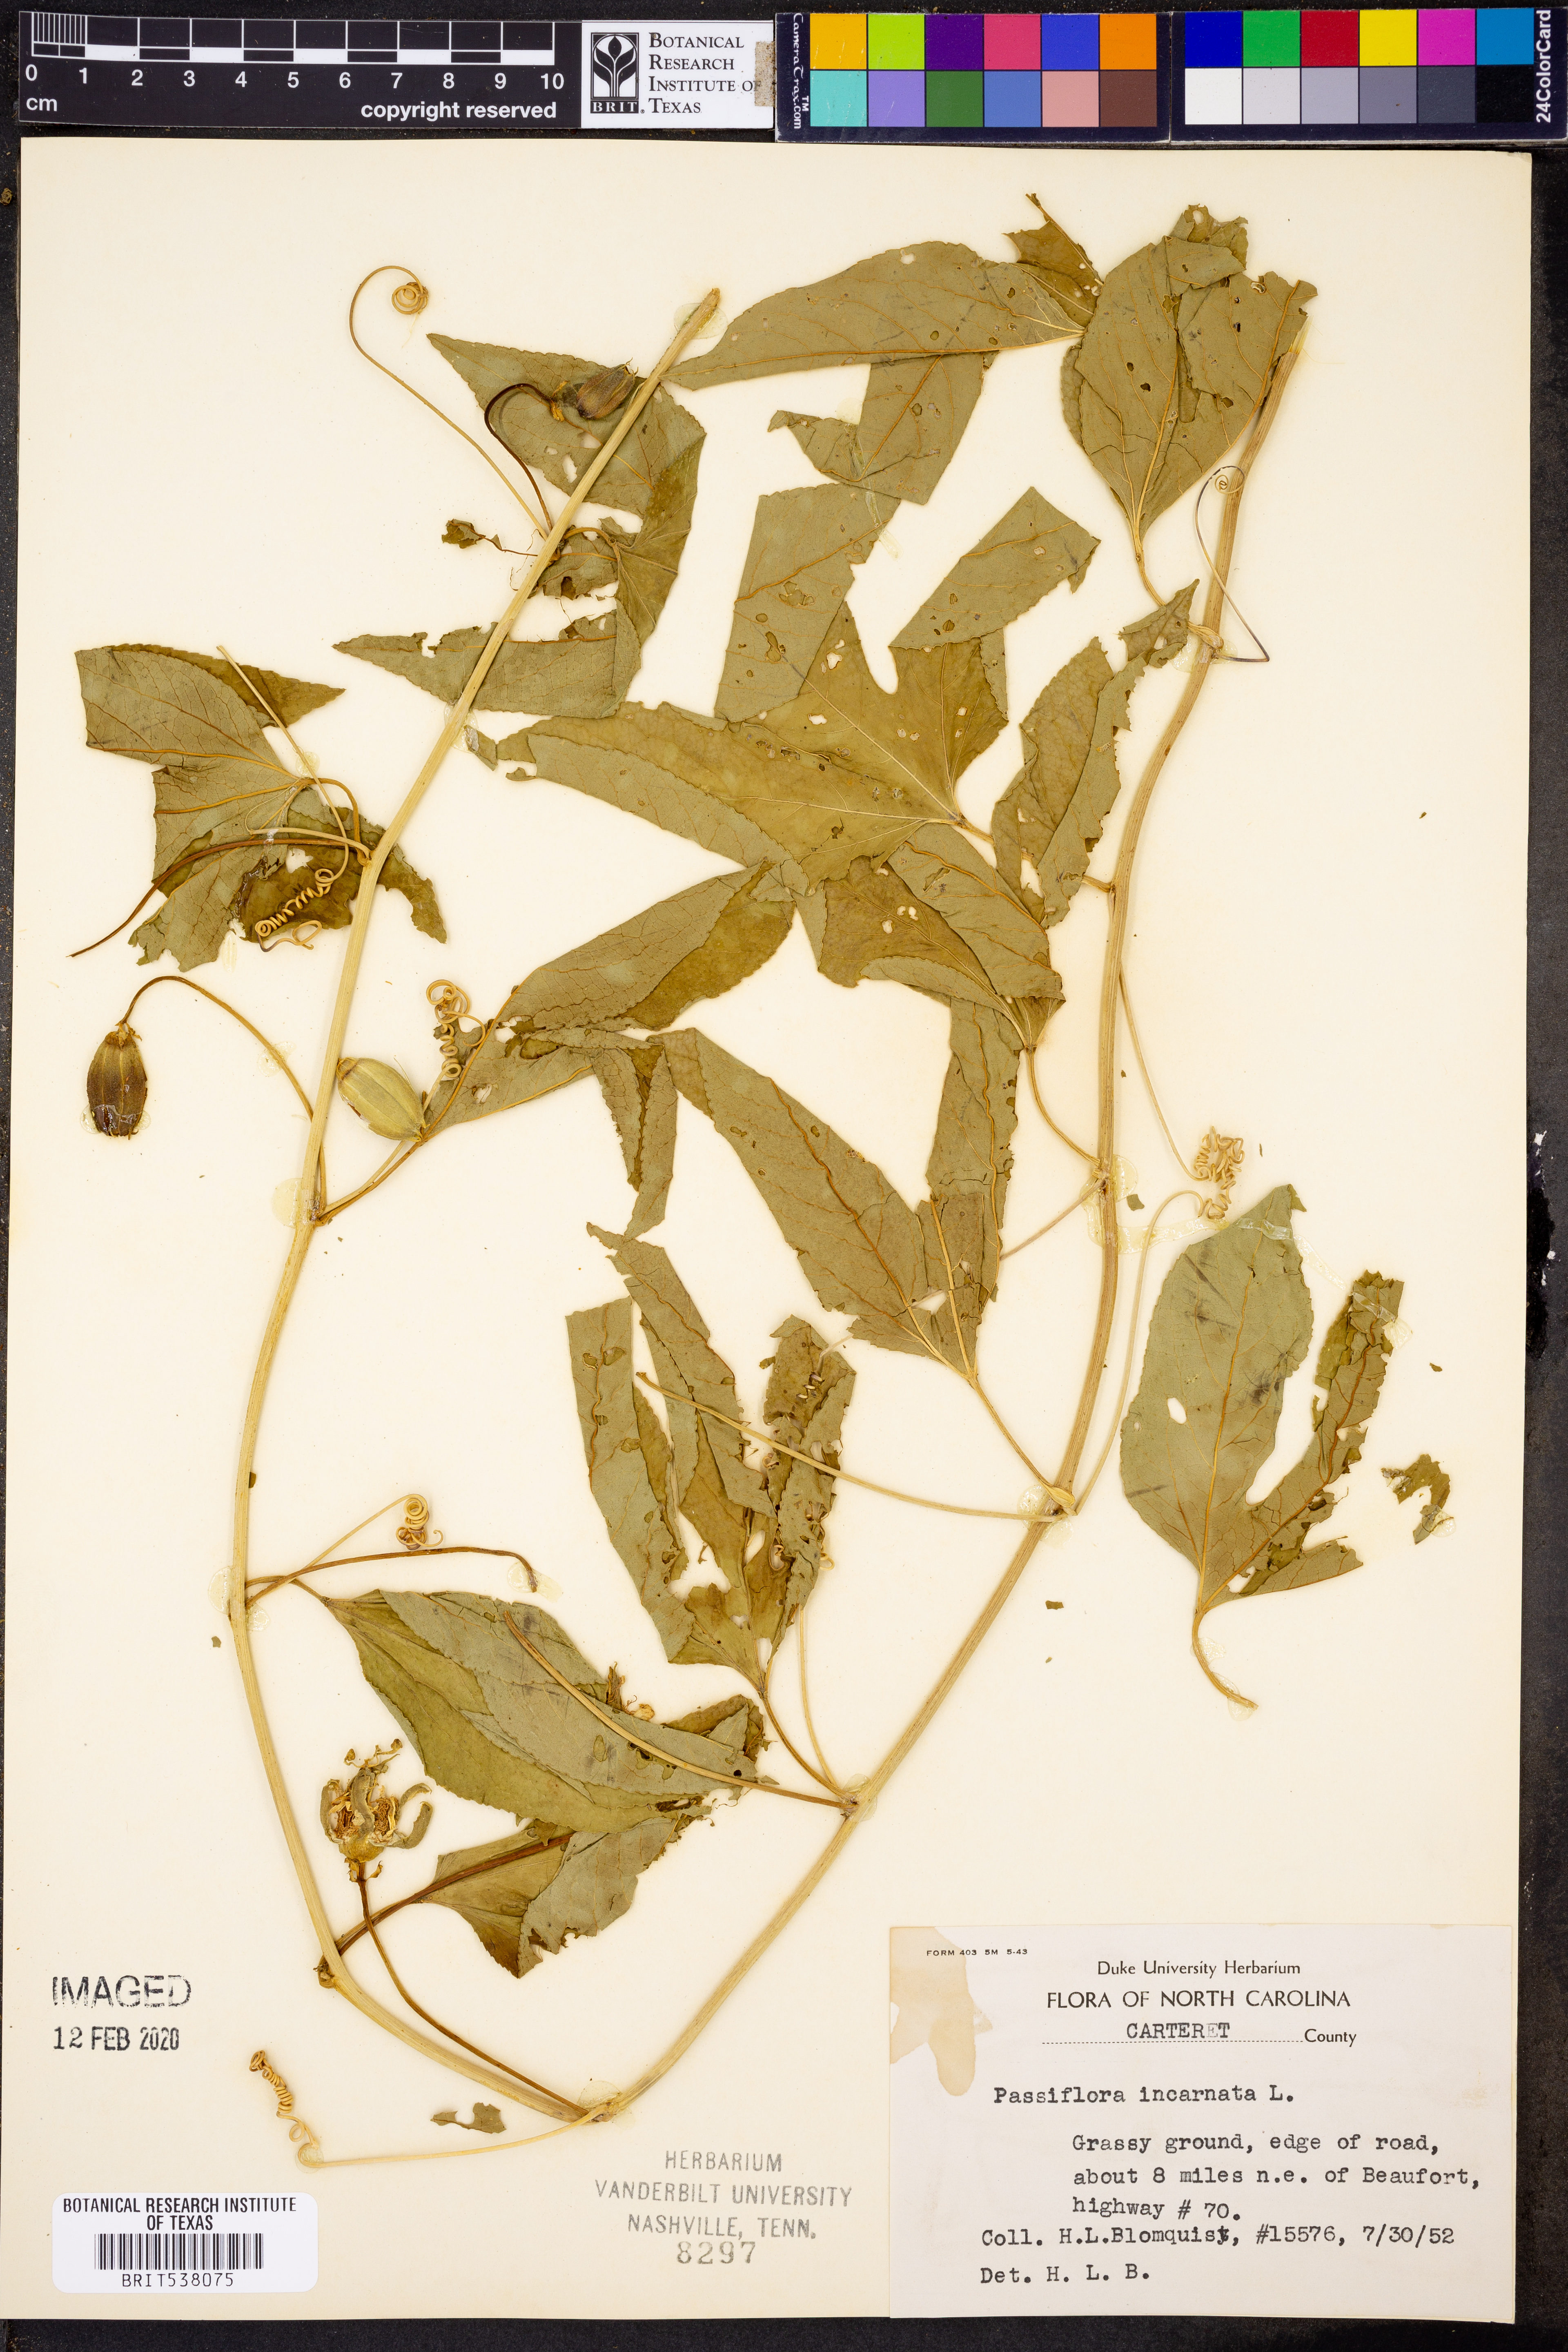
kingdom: Plantae
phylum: Tracheophyta
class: Magnoliopsida
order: Malpighiales
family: Passifloraceae
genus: Passiflora
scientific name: Passiflora incarnata
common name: Apricot-vine
